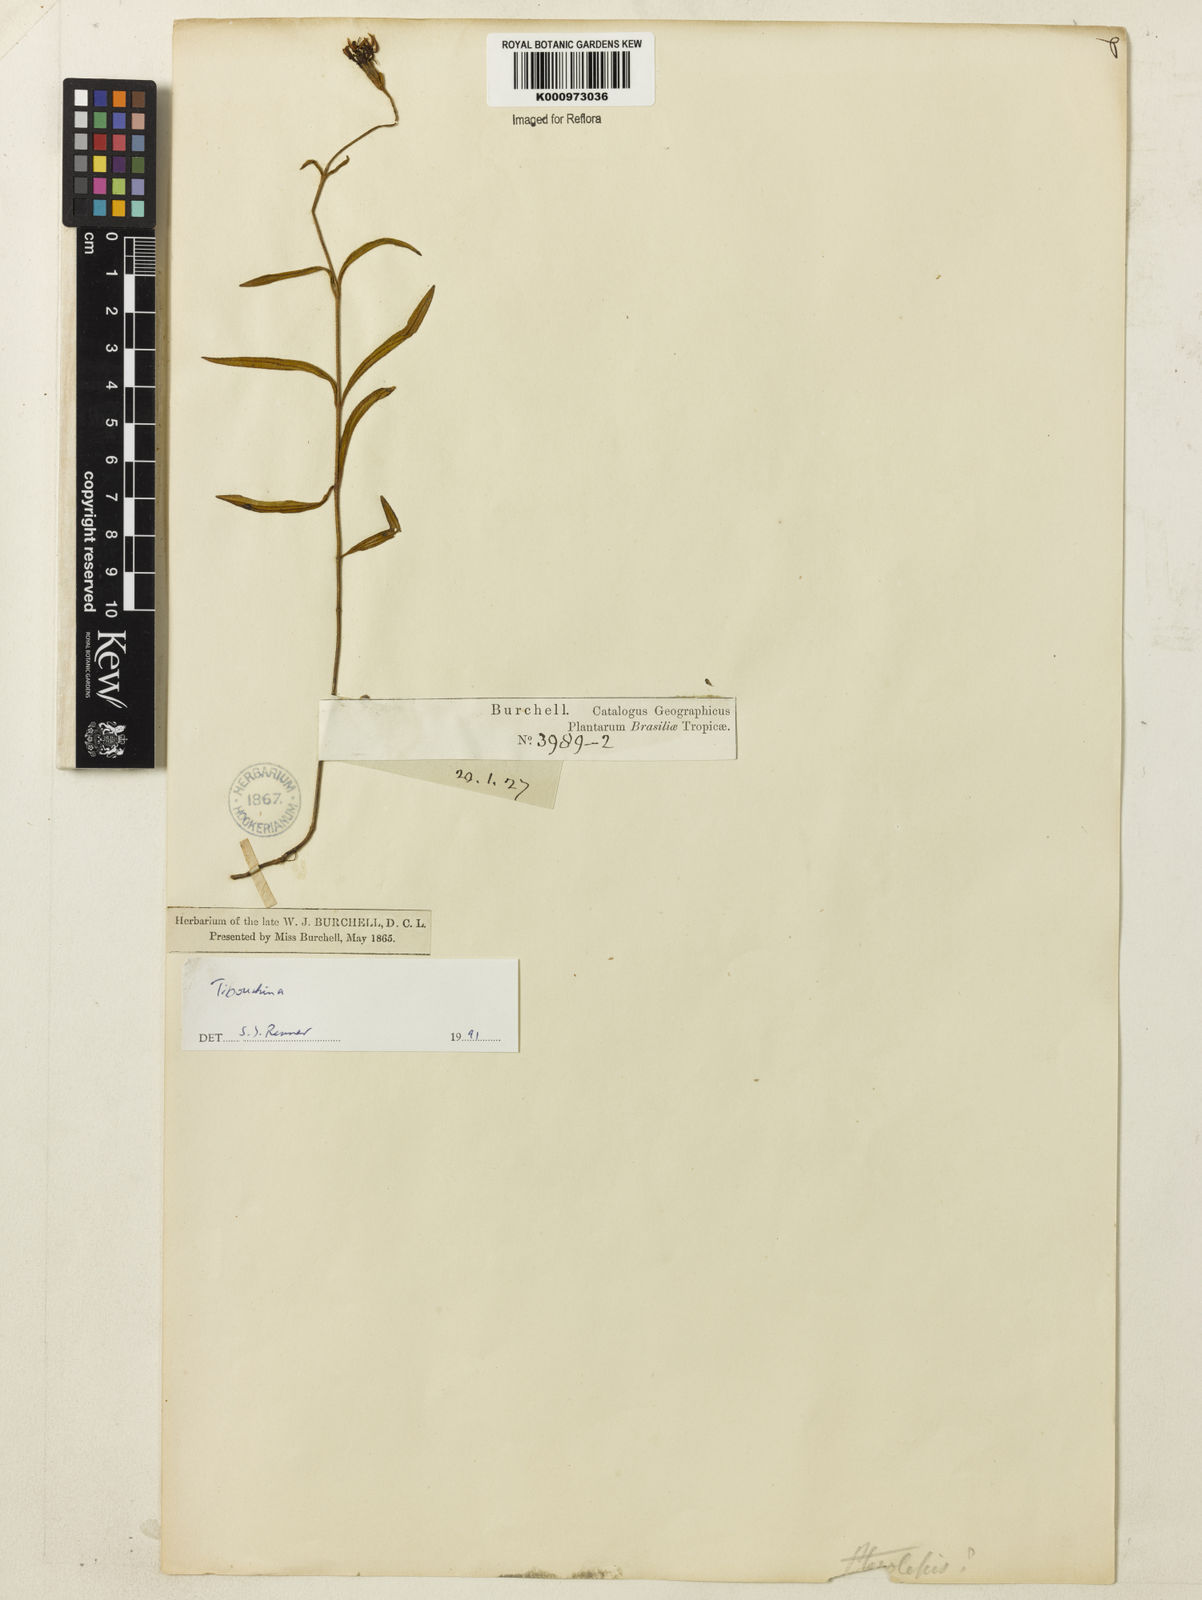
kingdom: Plantae
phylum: Tracheophyta
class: Magnoliopsida
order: Myrtales
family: Melastomataceae
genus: Tibouchina
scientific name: Tibouchina
